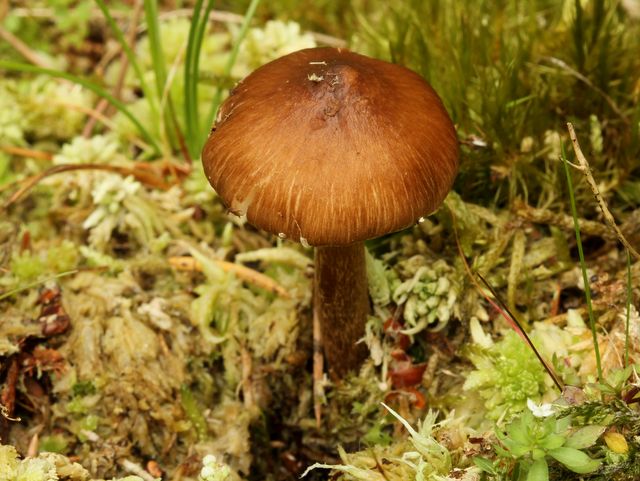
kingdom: Fungi
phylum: Basidiomycota
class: Agaricomycetes
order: Agaricales
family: Inocybaceae
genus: Inocybe
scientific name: Inocybe napipes
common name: roeknoldet trævlhat
